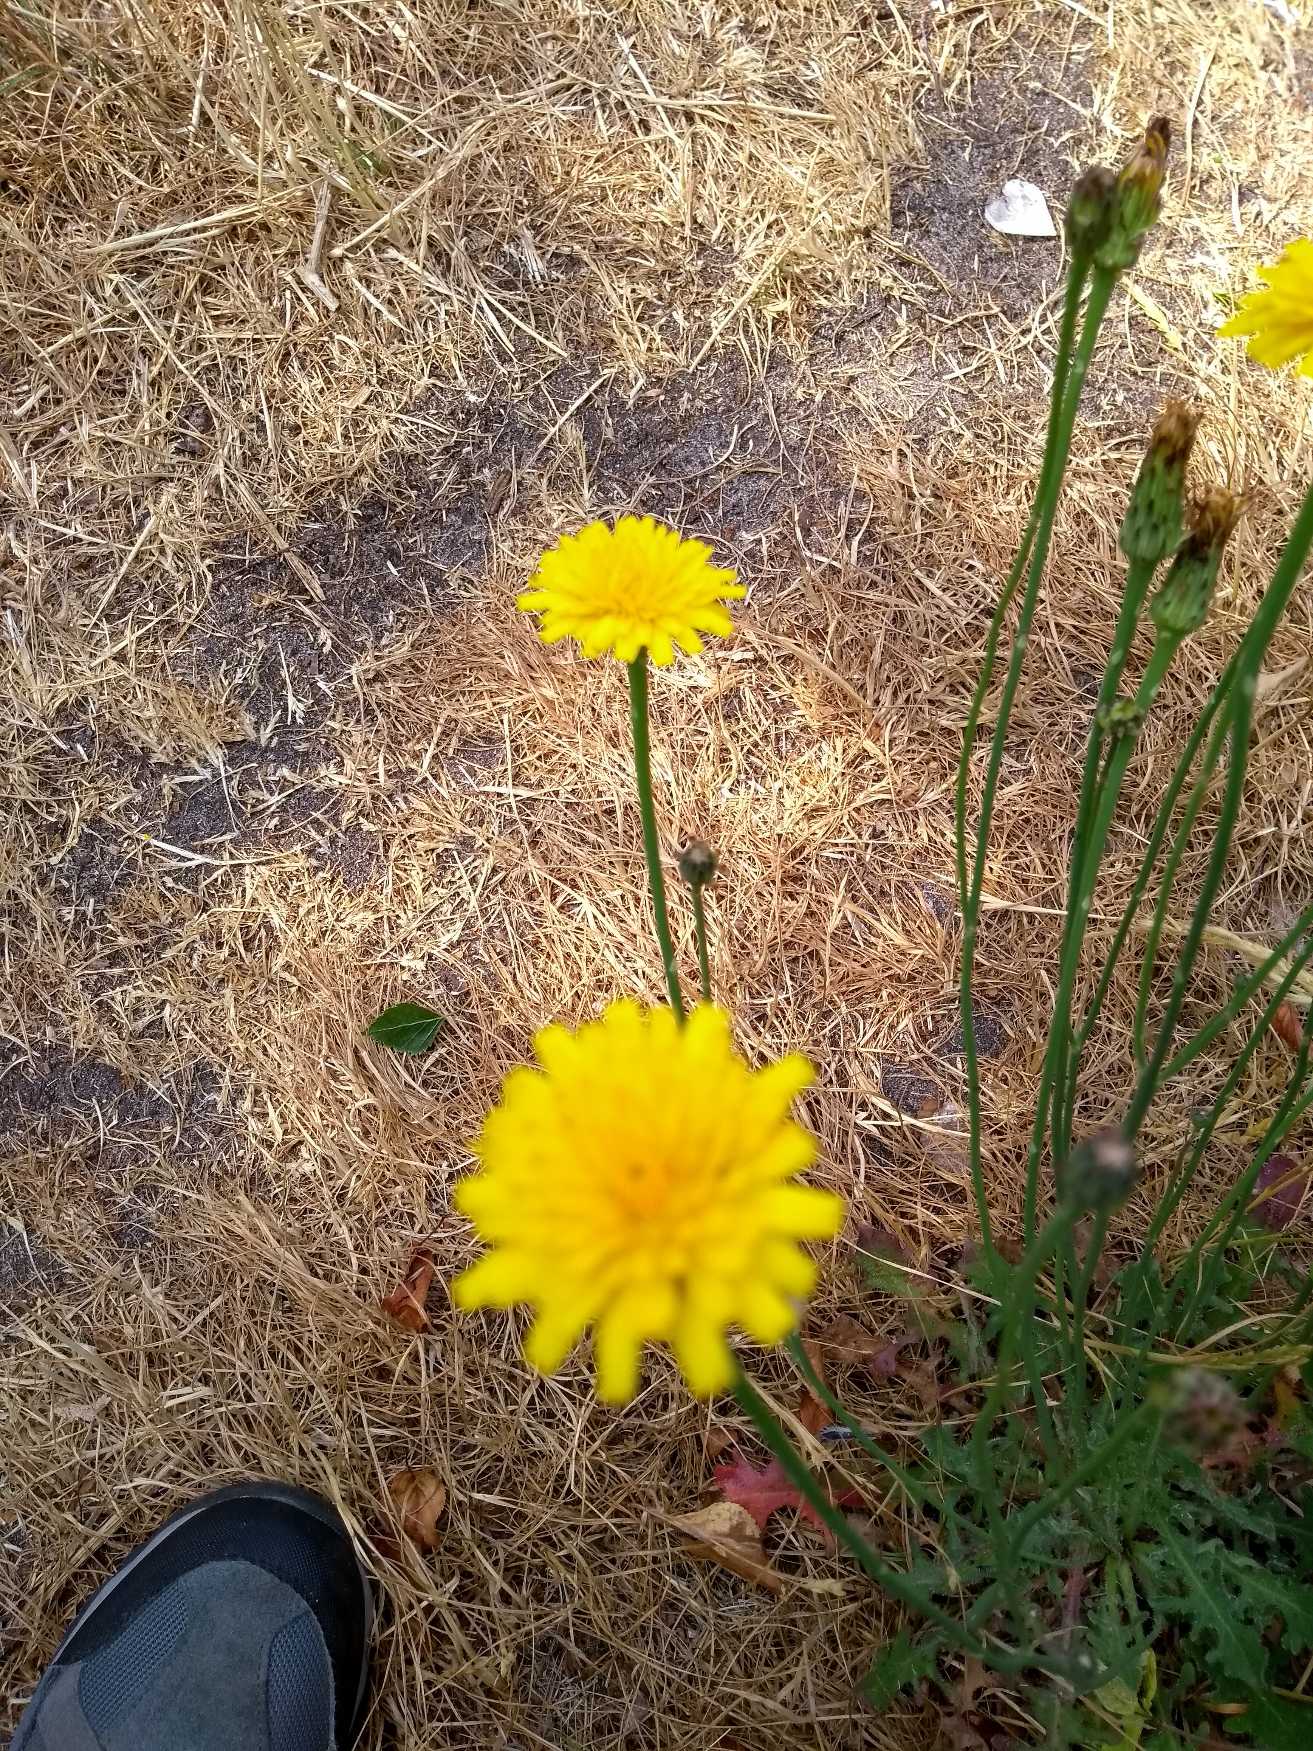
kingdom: Plantae
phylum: Tracheophyta
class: Magnoliopsida
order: Asterales
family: Asteraceae
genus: Hypochaeris
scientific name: Hypochaeris radicata
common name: Almindelig kongepen
